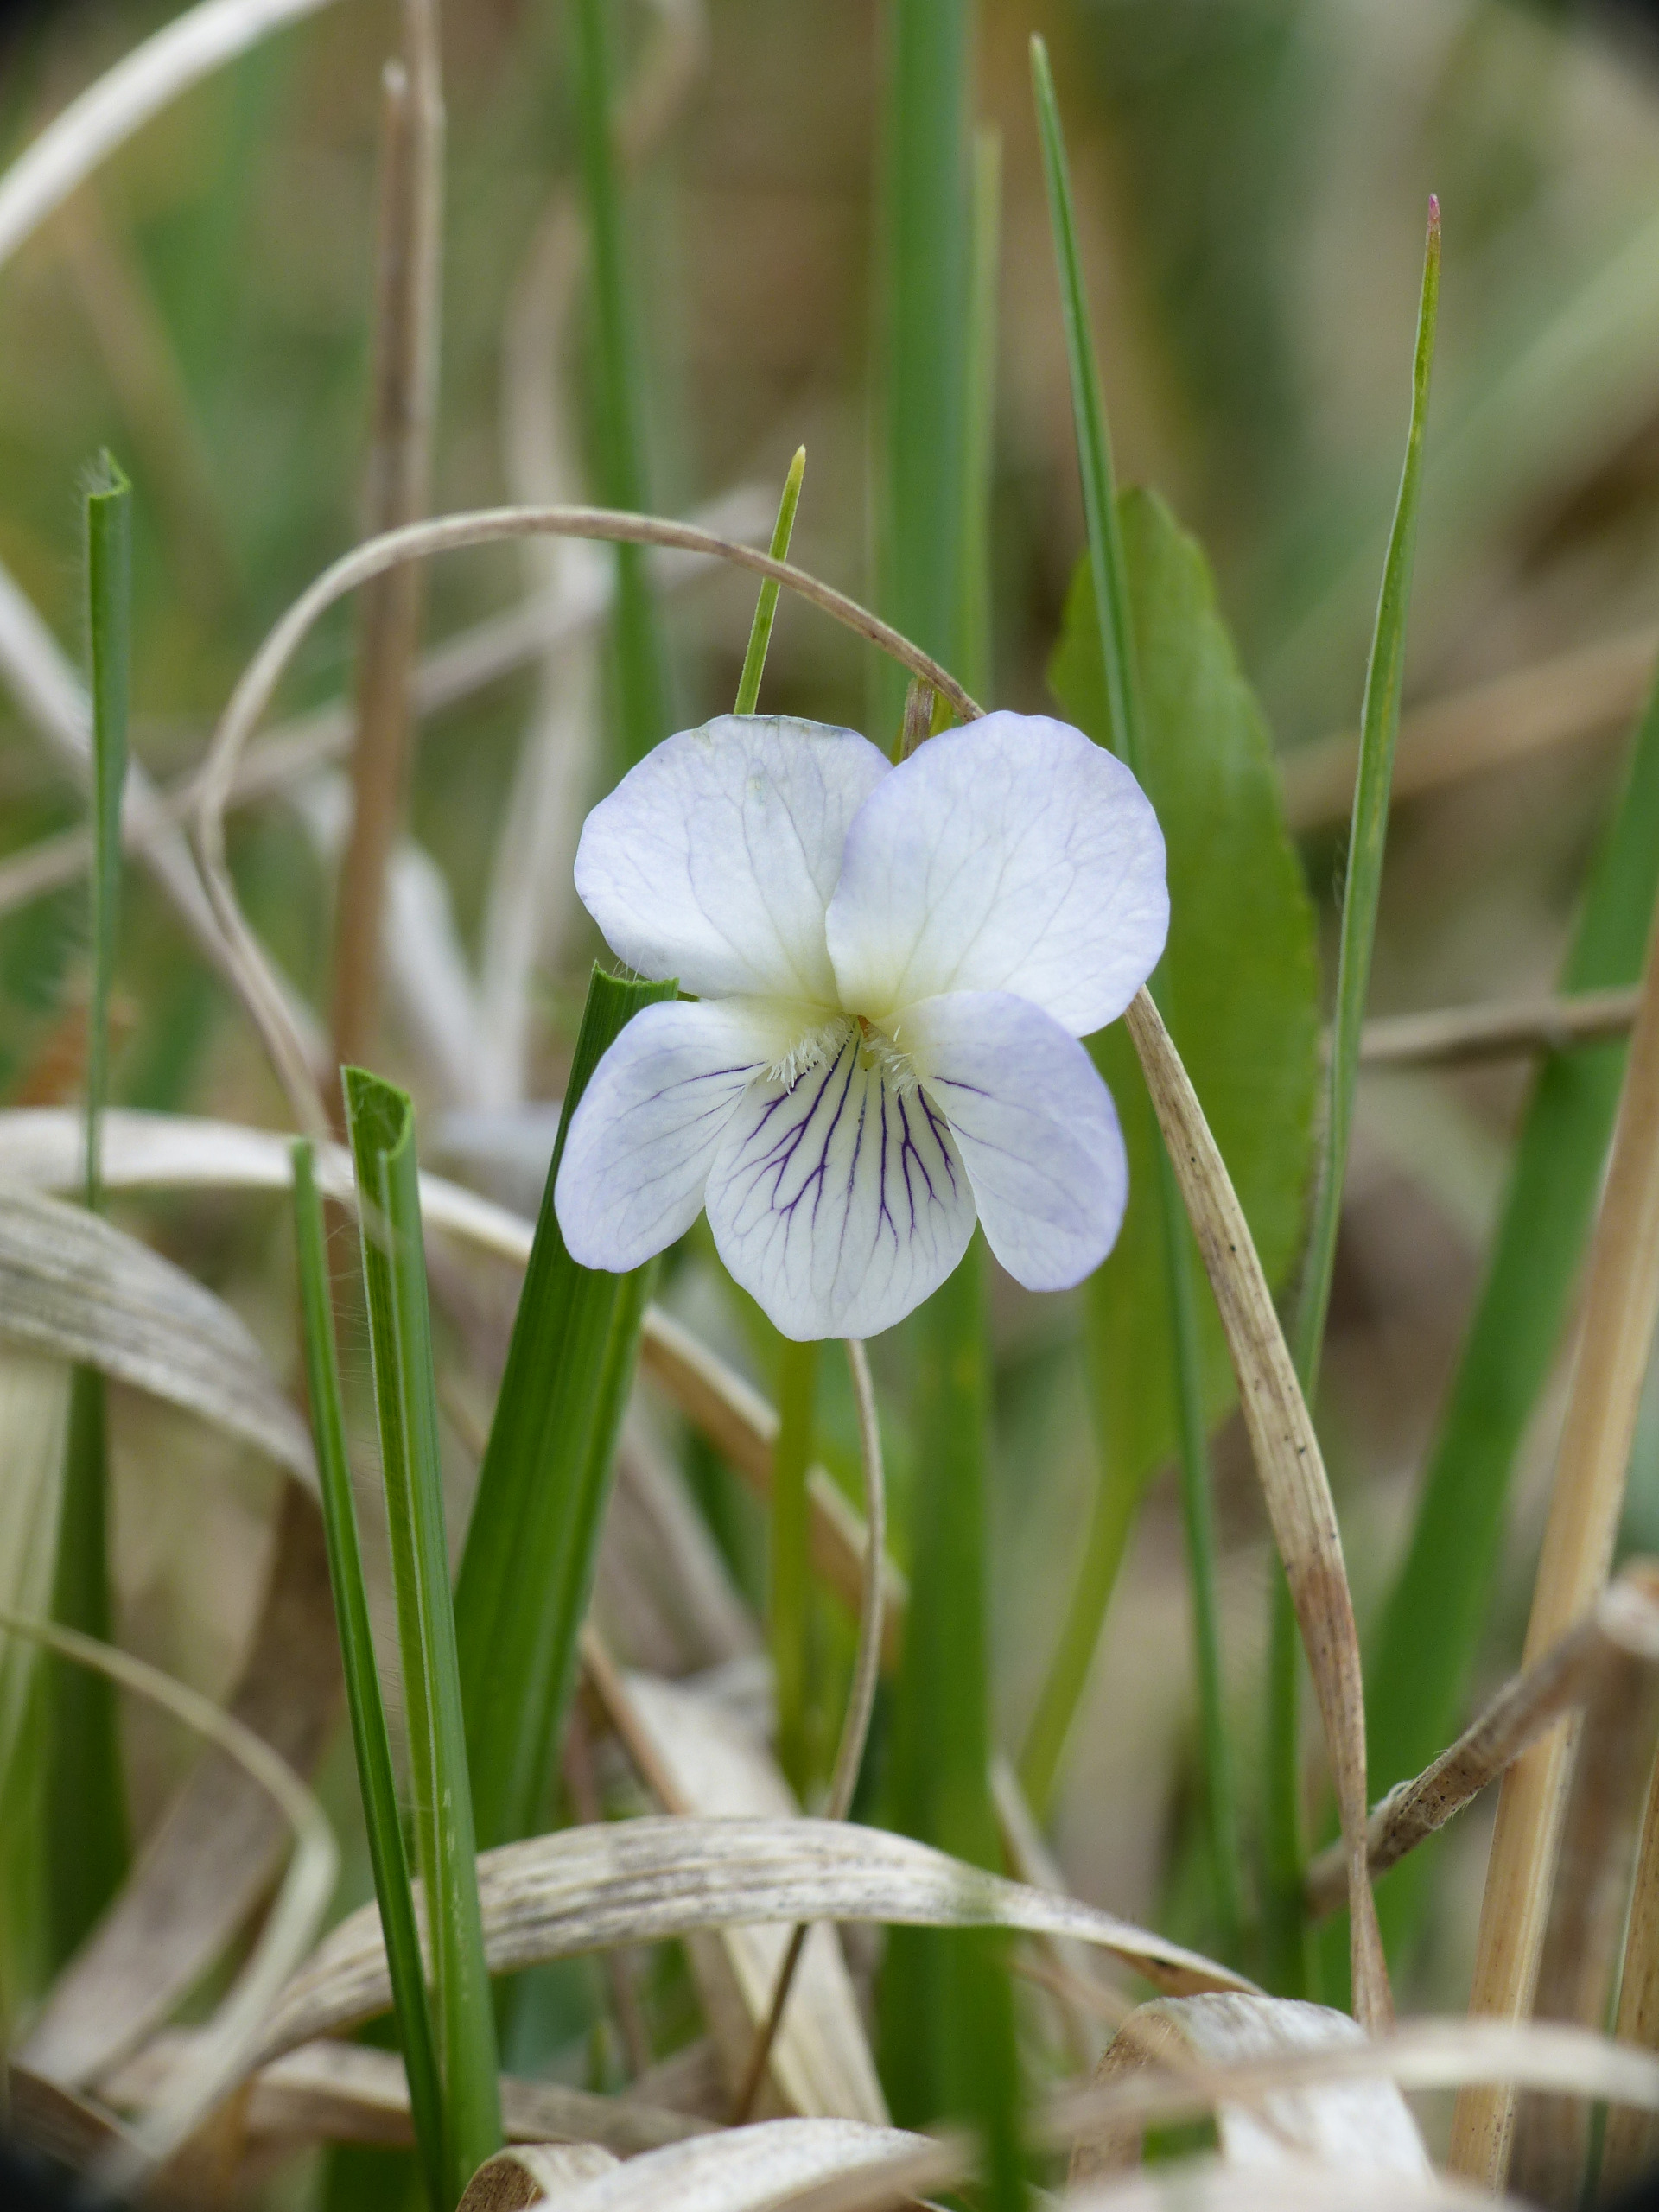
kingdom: Plantae
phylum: Tracheophyta
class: Magnoliopsida
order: Malpighiales
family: Violaceae
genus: Viola
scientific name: Viola stagnina
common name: Rank viol
